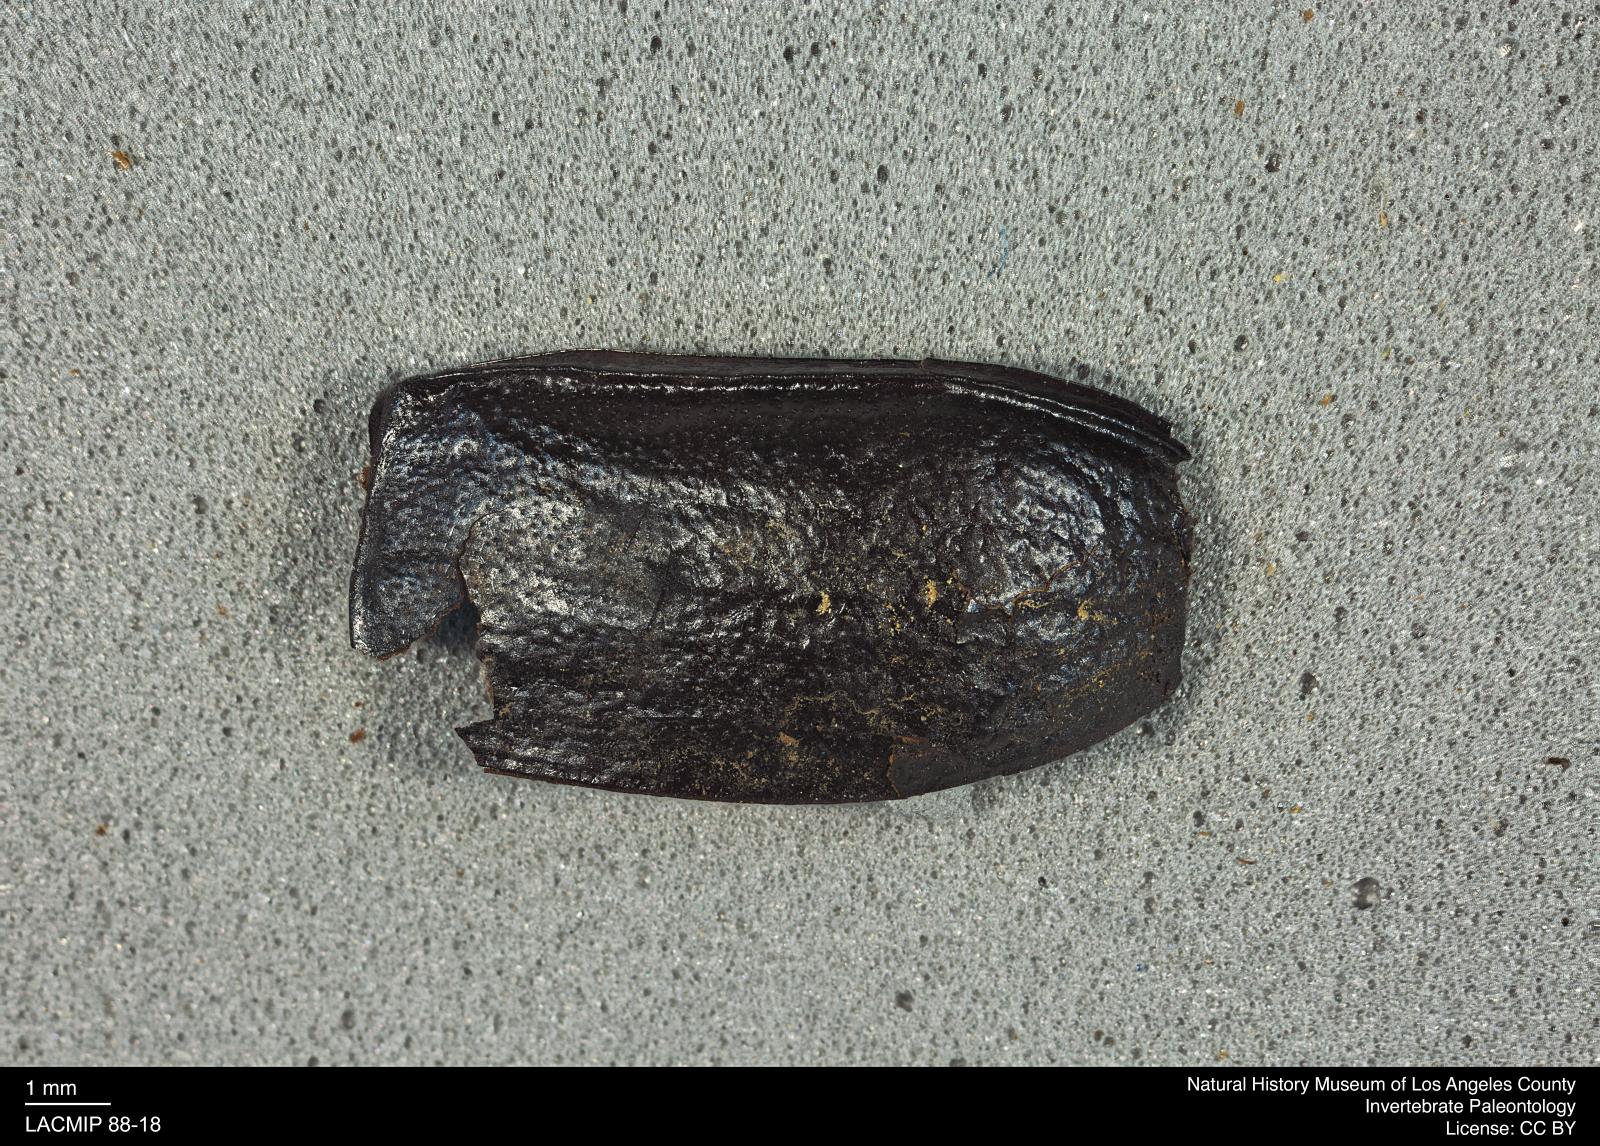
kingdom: Animalia
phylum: Arthropoda
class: Insecta
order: Coleoptera
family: Tenebrionidae
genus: Coniontis
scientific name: Coniontis abdominalis
